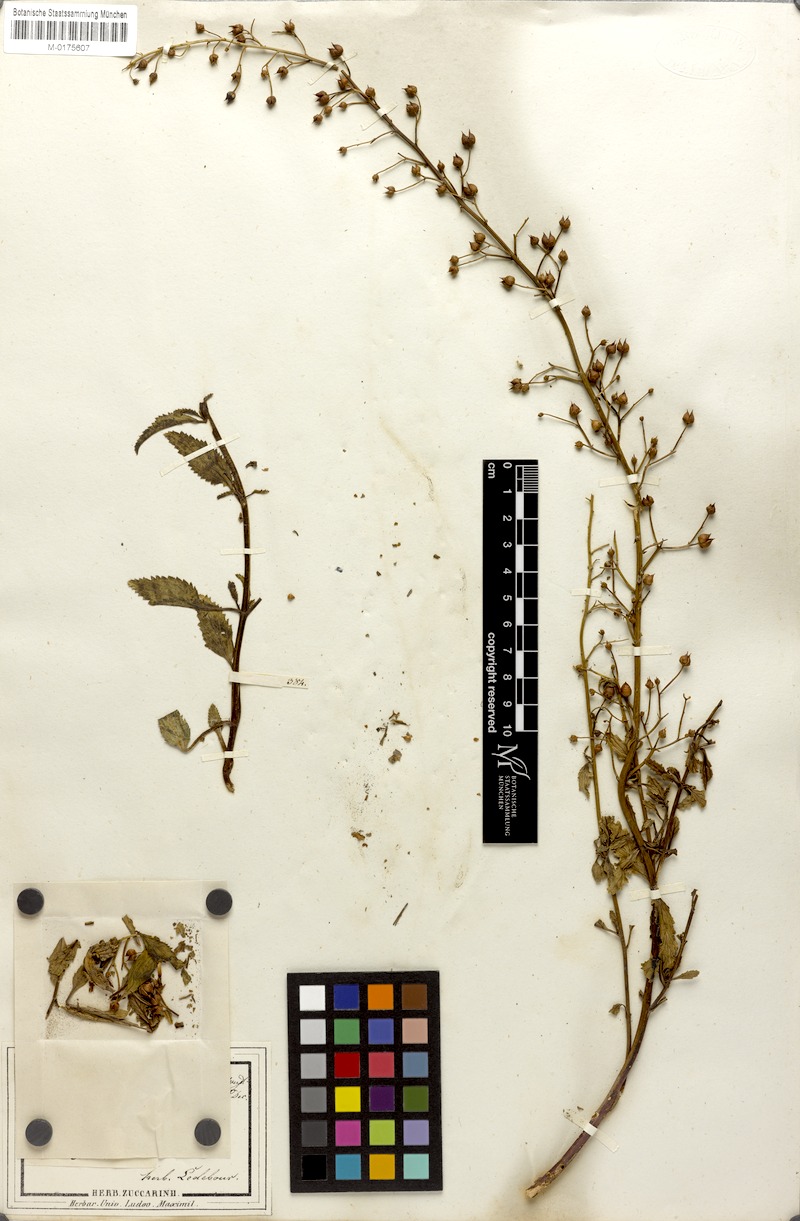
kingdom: Plantae
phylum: Tracheophyta
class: Magnoliopsida
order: Lamiales
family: Scrophulariaceae
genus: Scrophularia
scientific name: Scrophularia incisa
